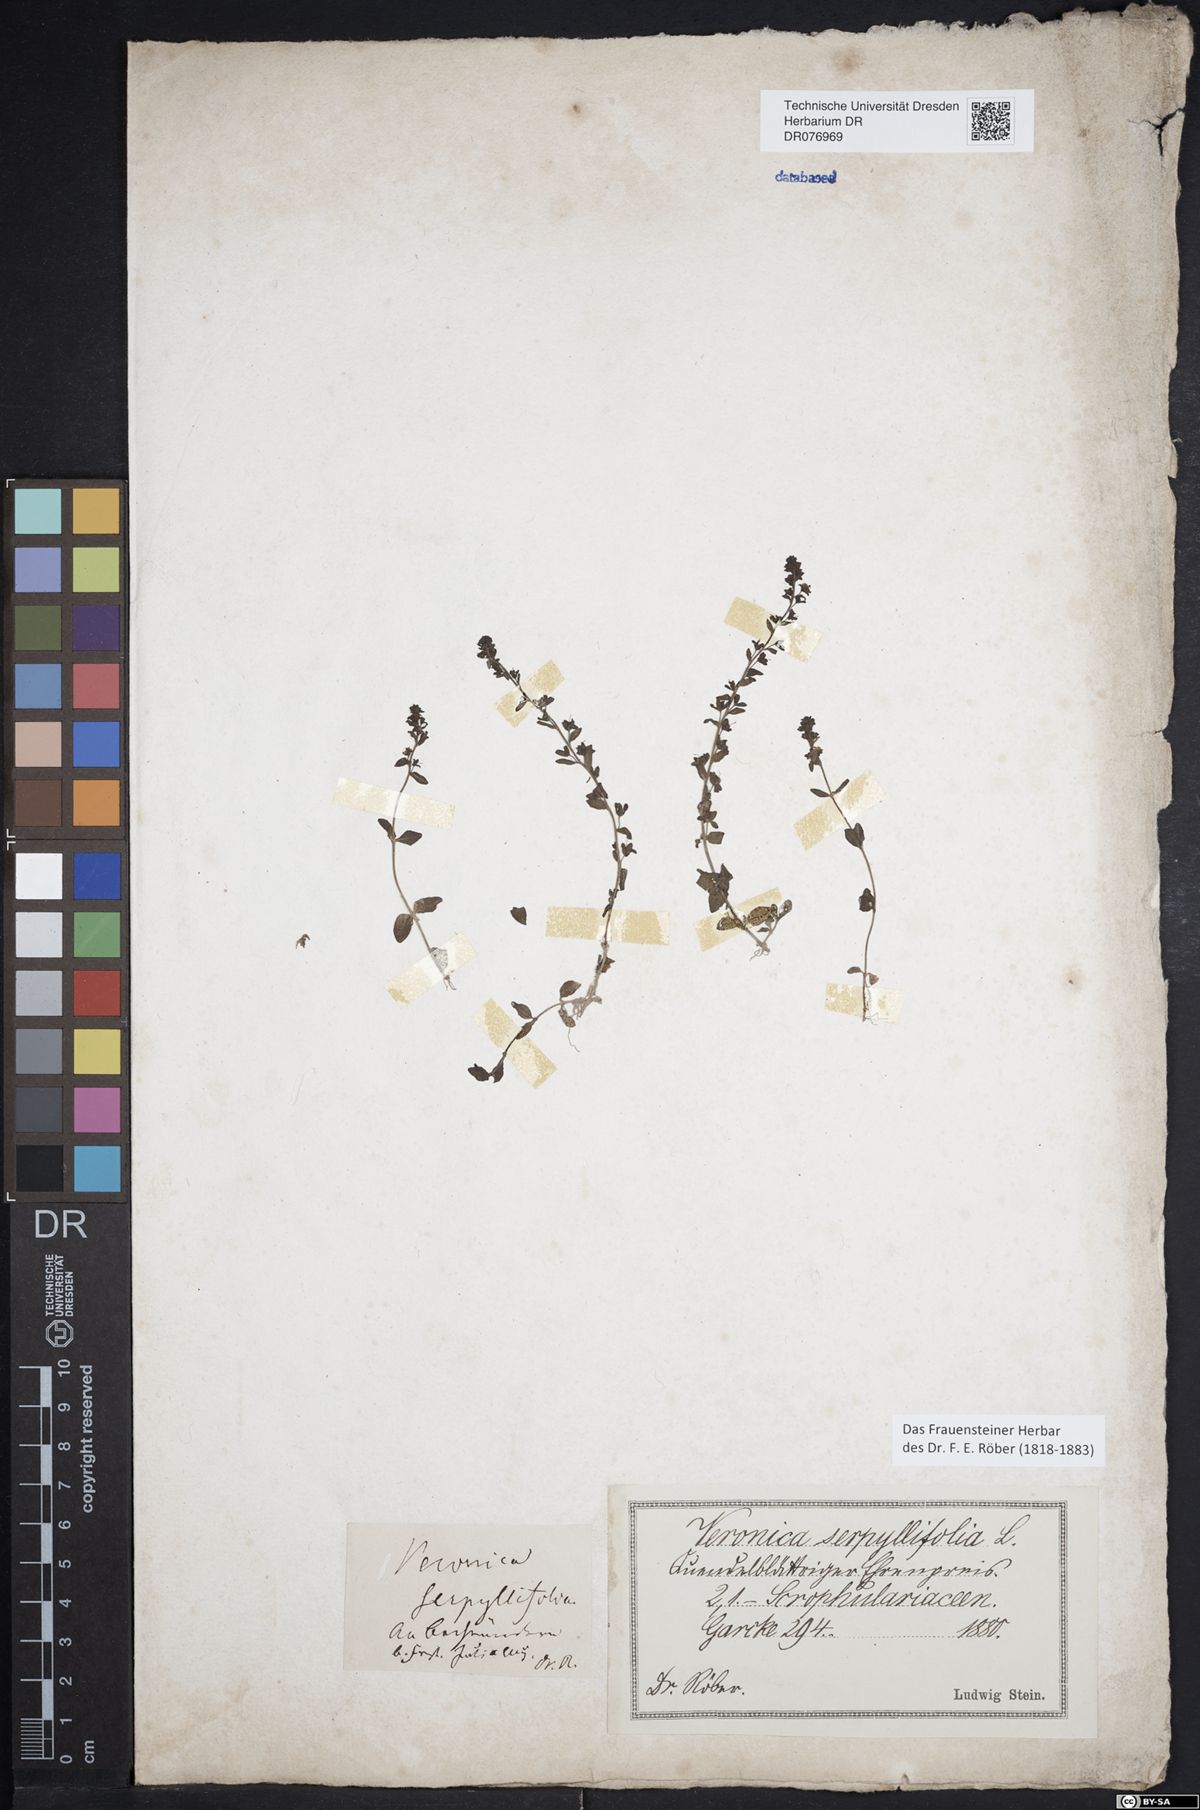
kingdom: Plantae
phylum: Tracheophyta
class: Magnoliopsida
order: Lamiales
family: Plantaginaceae
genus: Veronica
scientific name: Veronica serpyllifolia
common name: Thyme-leaved speedwell
